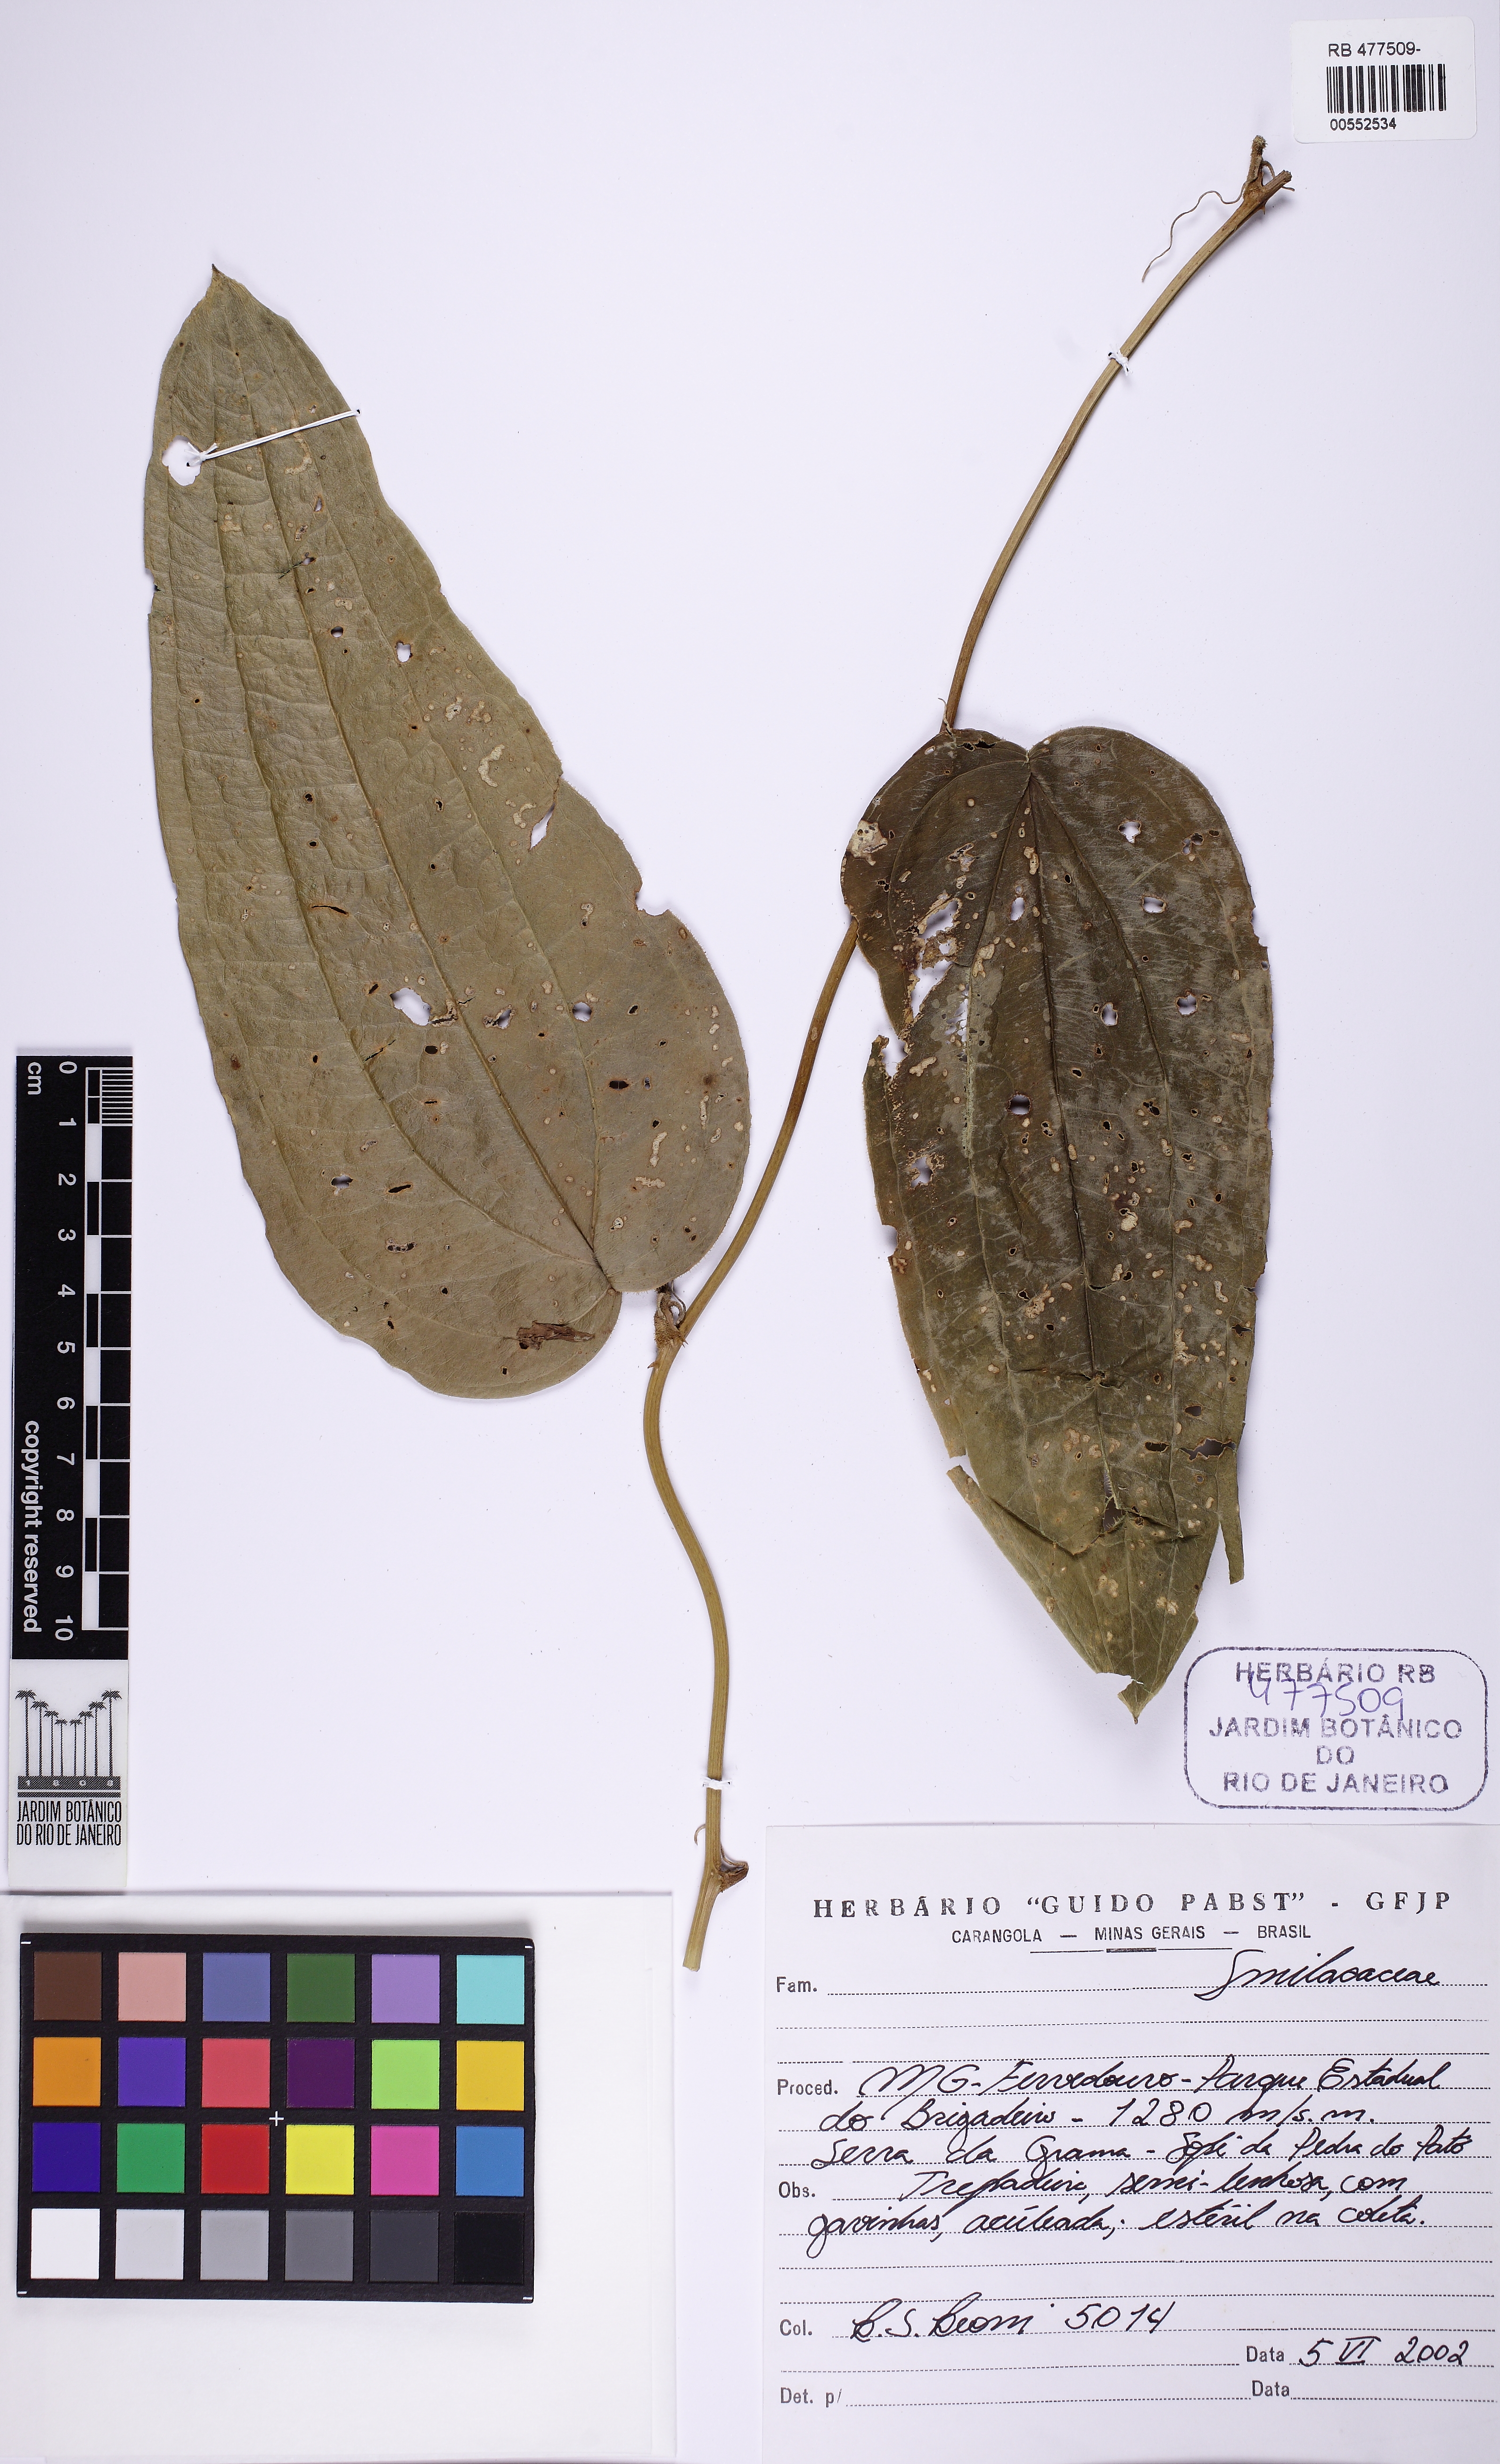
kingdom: Plantae
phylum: Tracheophyta
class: Liliopsida
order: Liliales
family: Smilacaceae
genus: Smilax
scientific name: Smilax pilosa
